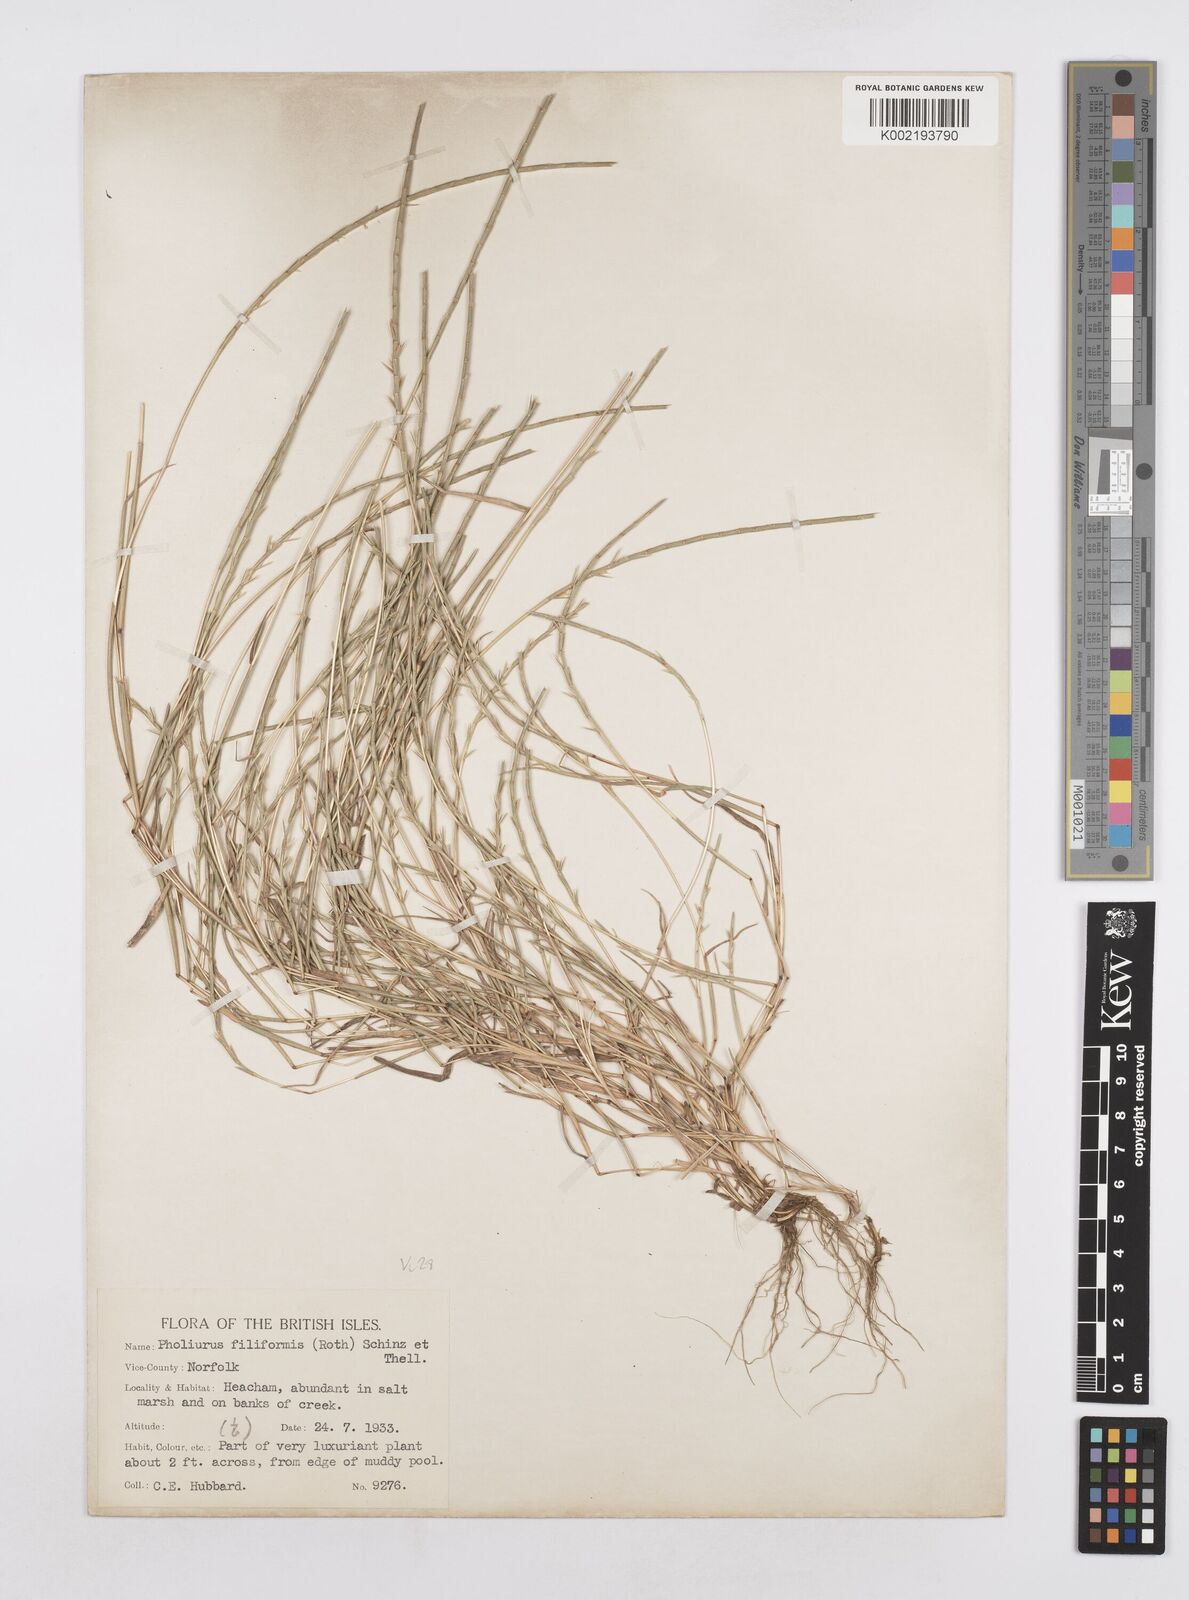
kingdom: Plantae
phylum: Tracheophyta
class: Liliopsida
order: Poales
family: Poaceae
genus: Parapholis
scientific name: Parapholis
